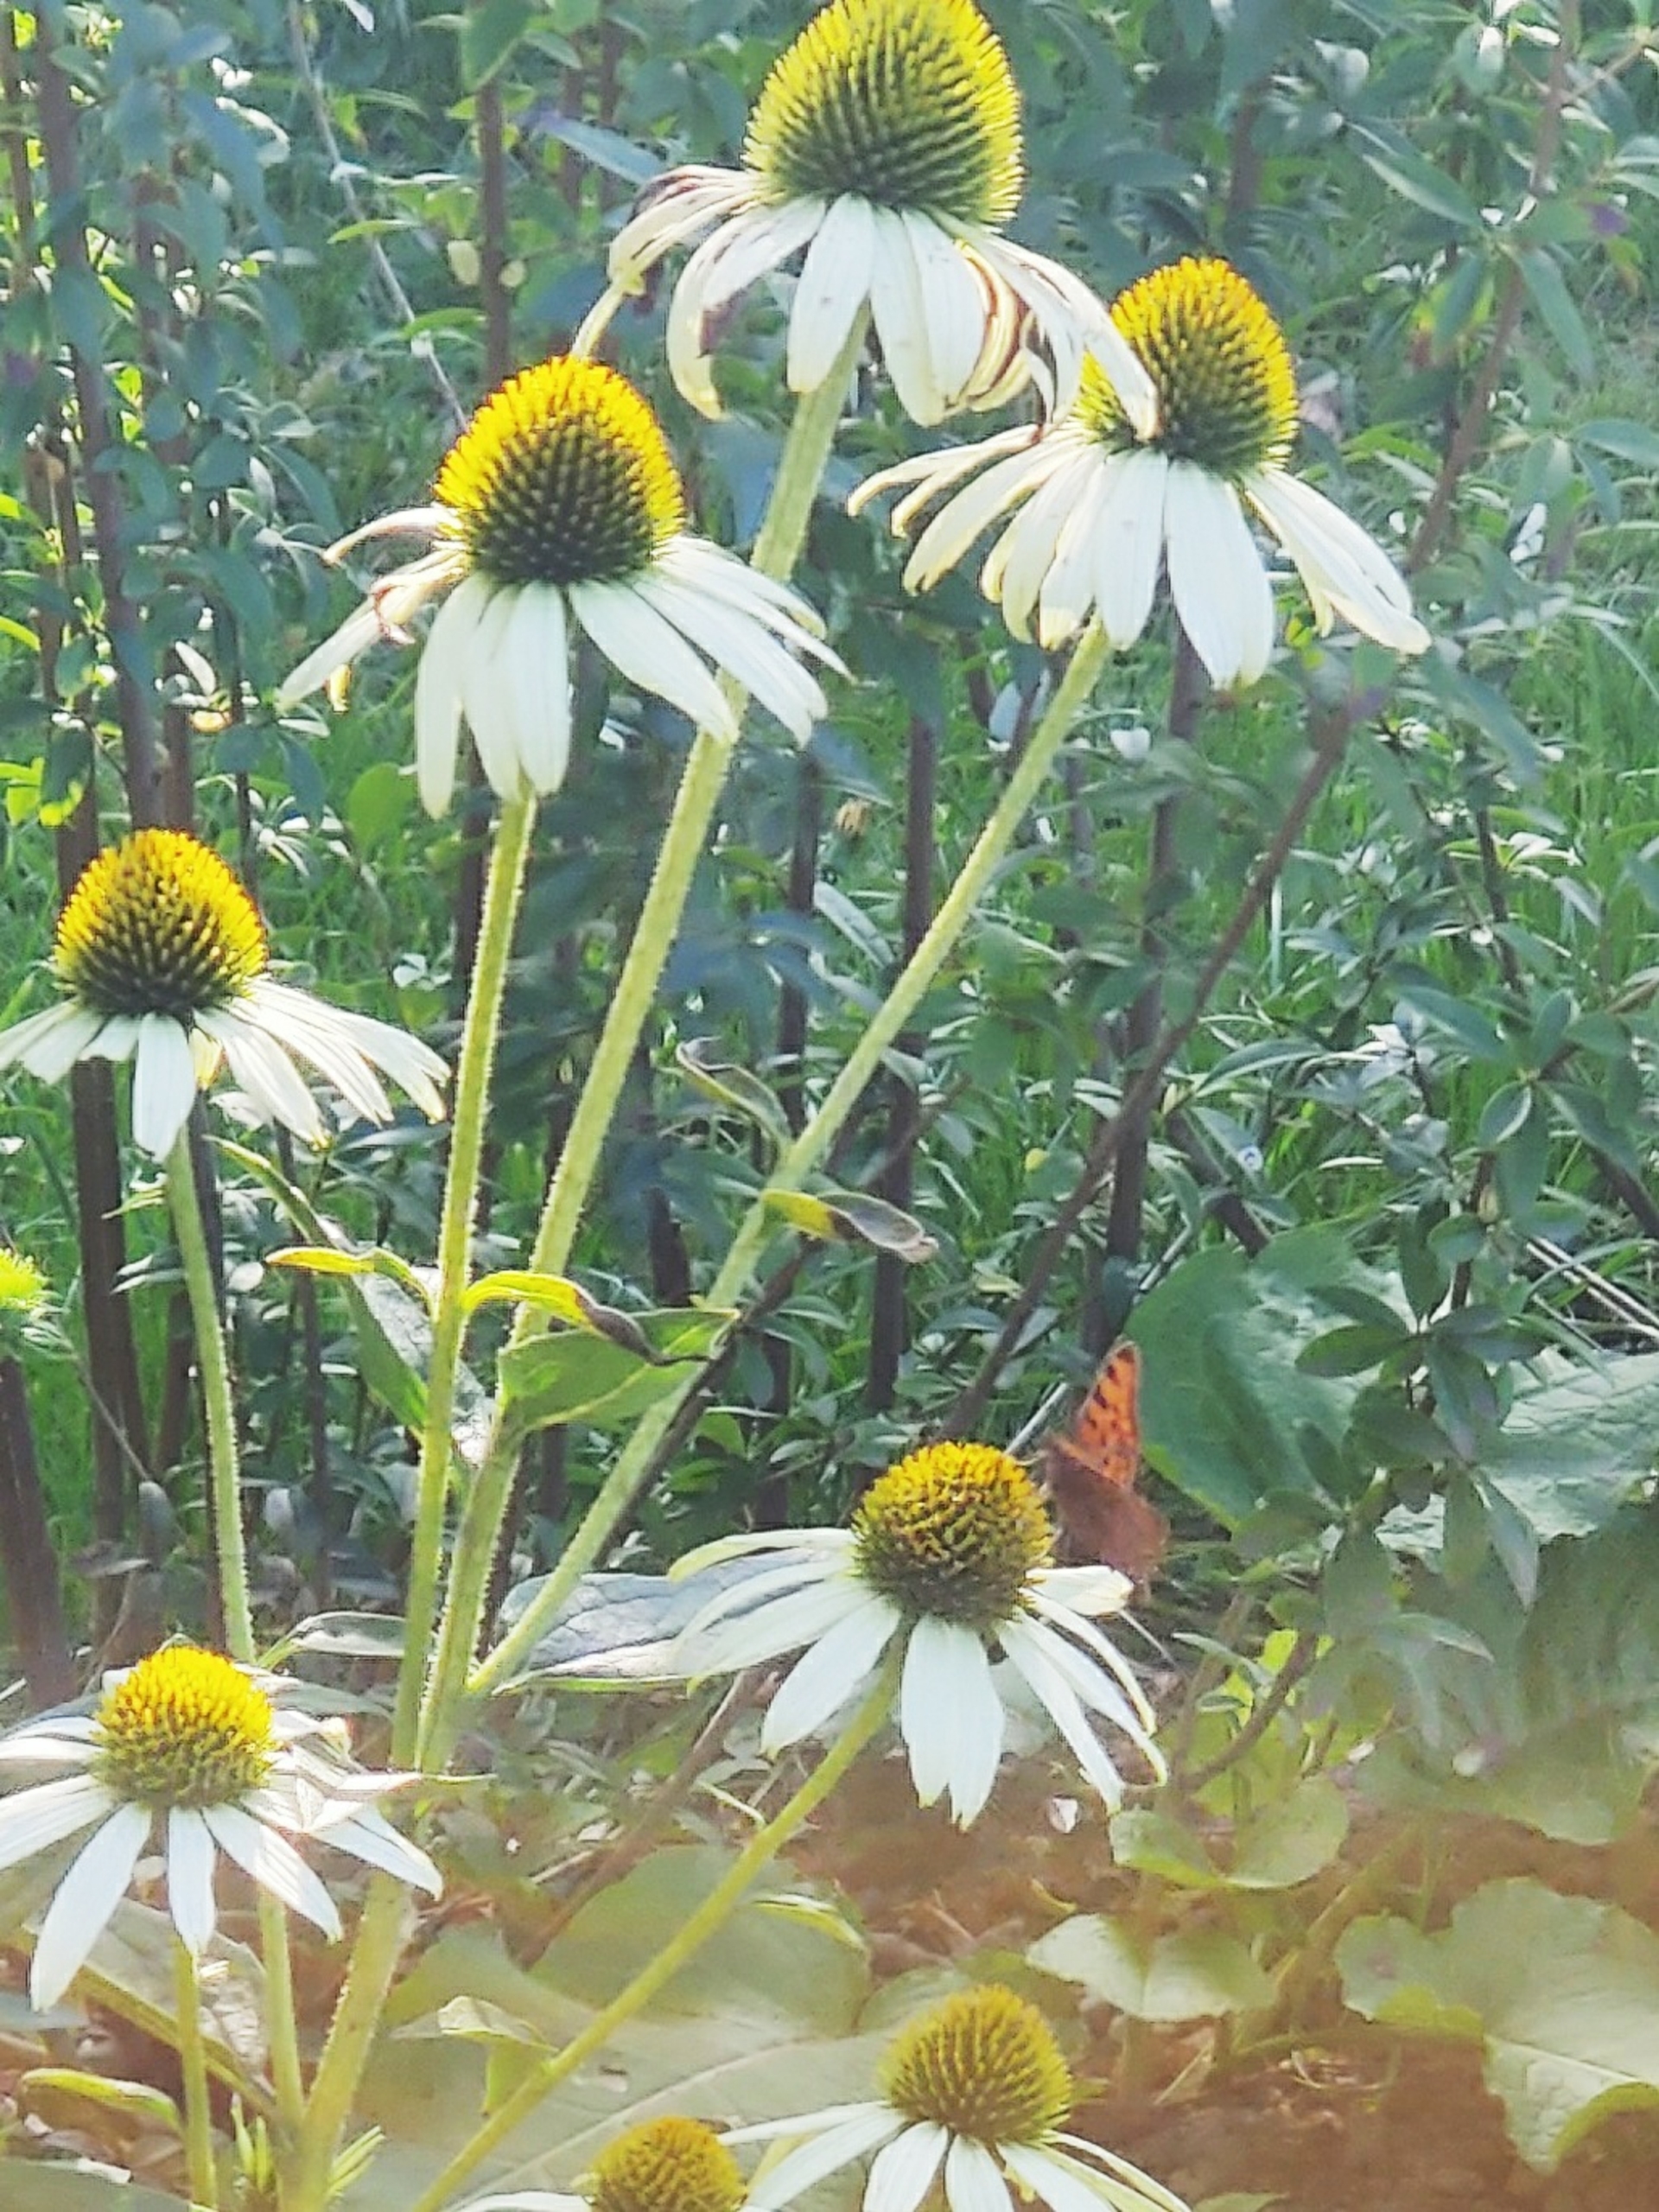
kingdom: Animalia
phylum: Arthropoda
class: Insecta
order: Lepidoptera
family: Nymphalidae
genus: Polygonia
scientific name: Polygonia c-album
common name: Det hvide C
